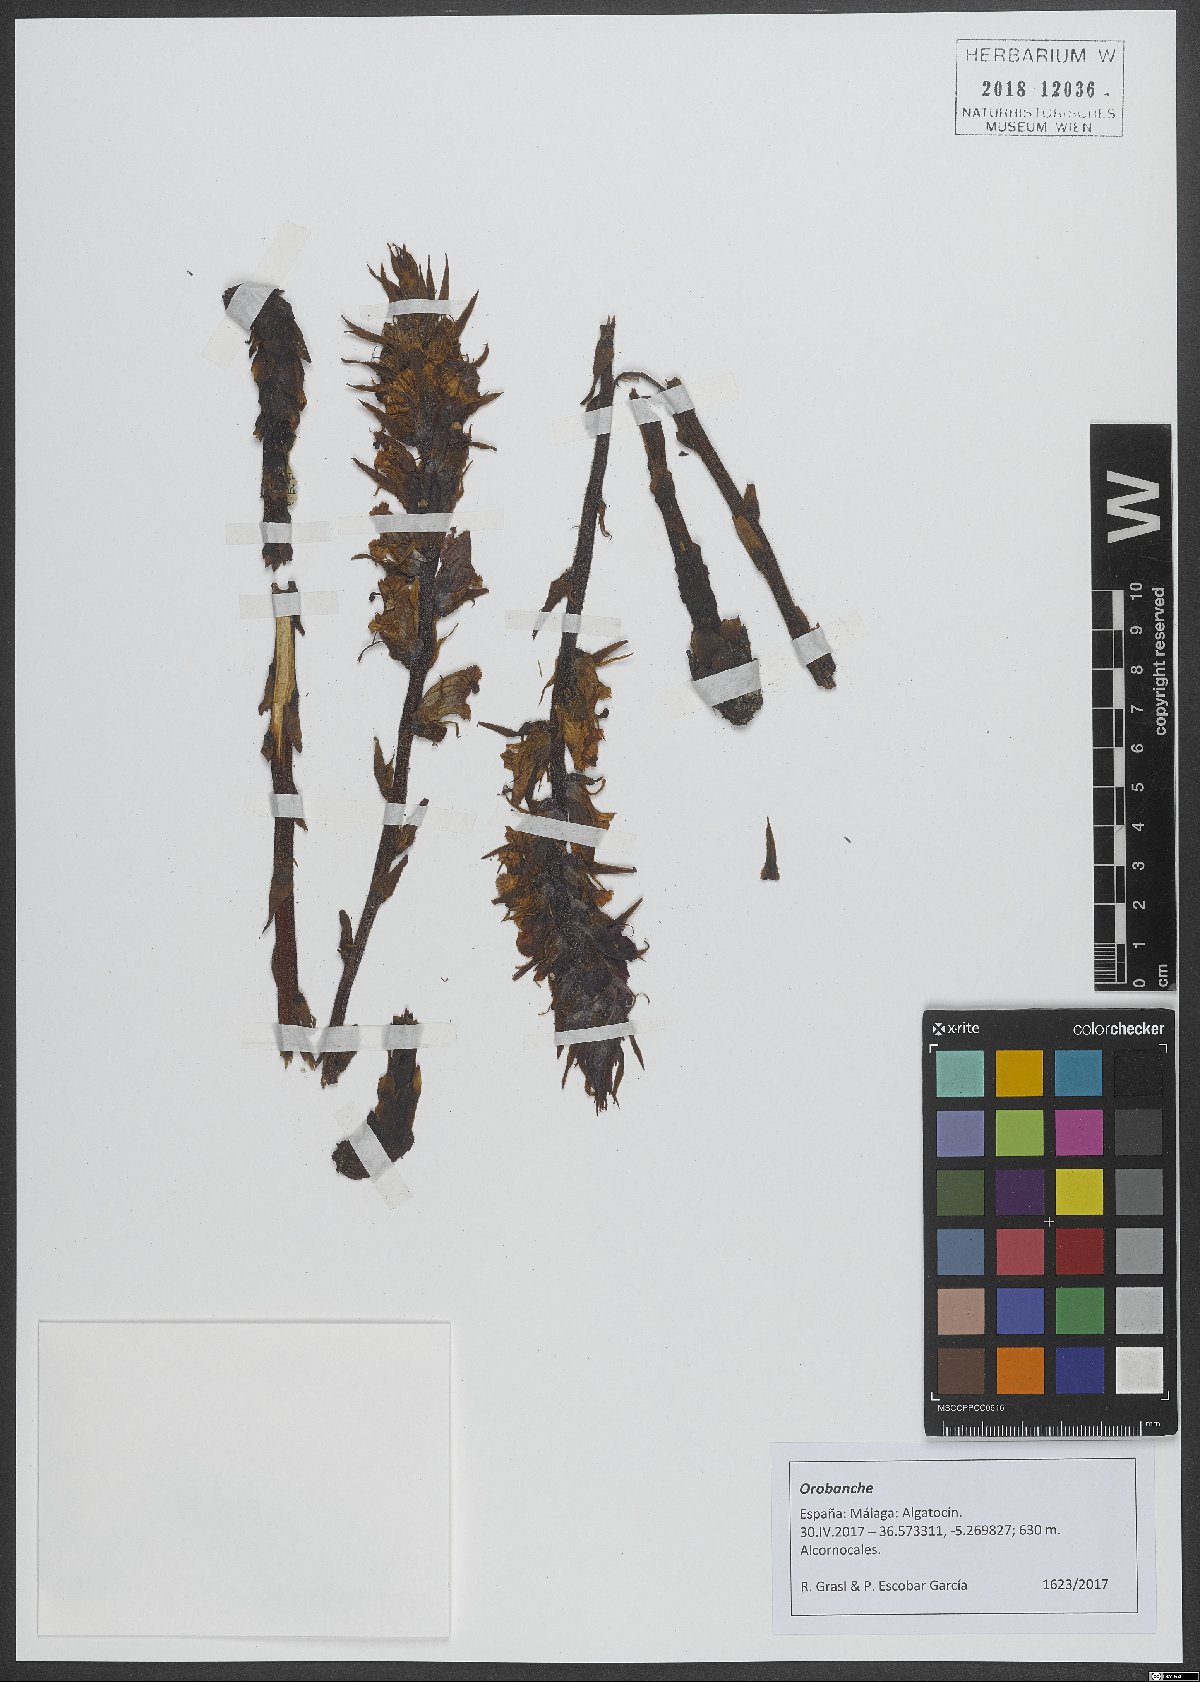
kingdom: Plantae
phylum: Tracheophyta
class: Magnoliopsida
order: Lamiales
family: Orobanchaceae
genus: Orobanche
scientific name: Orobanche
